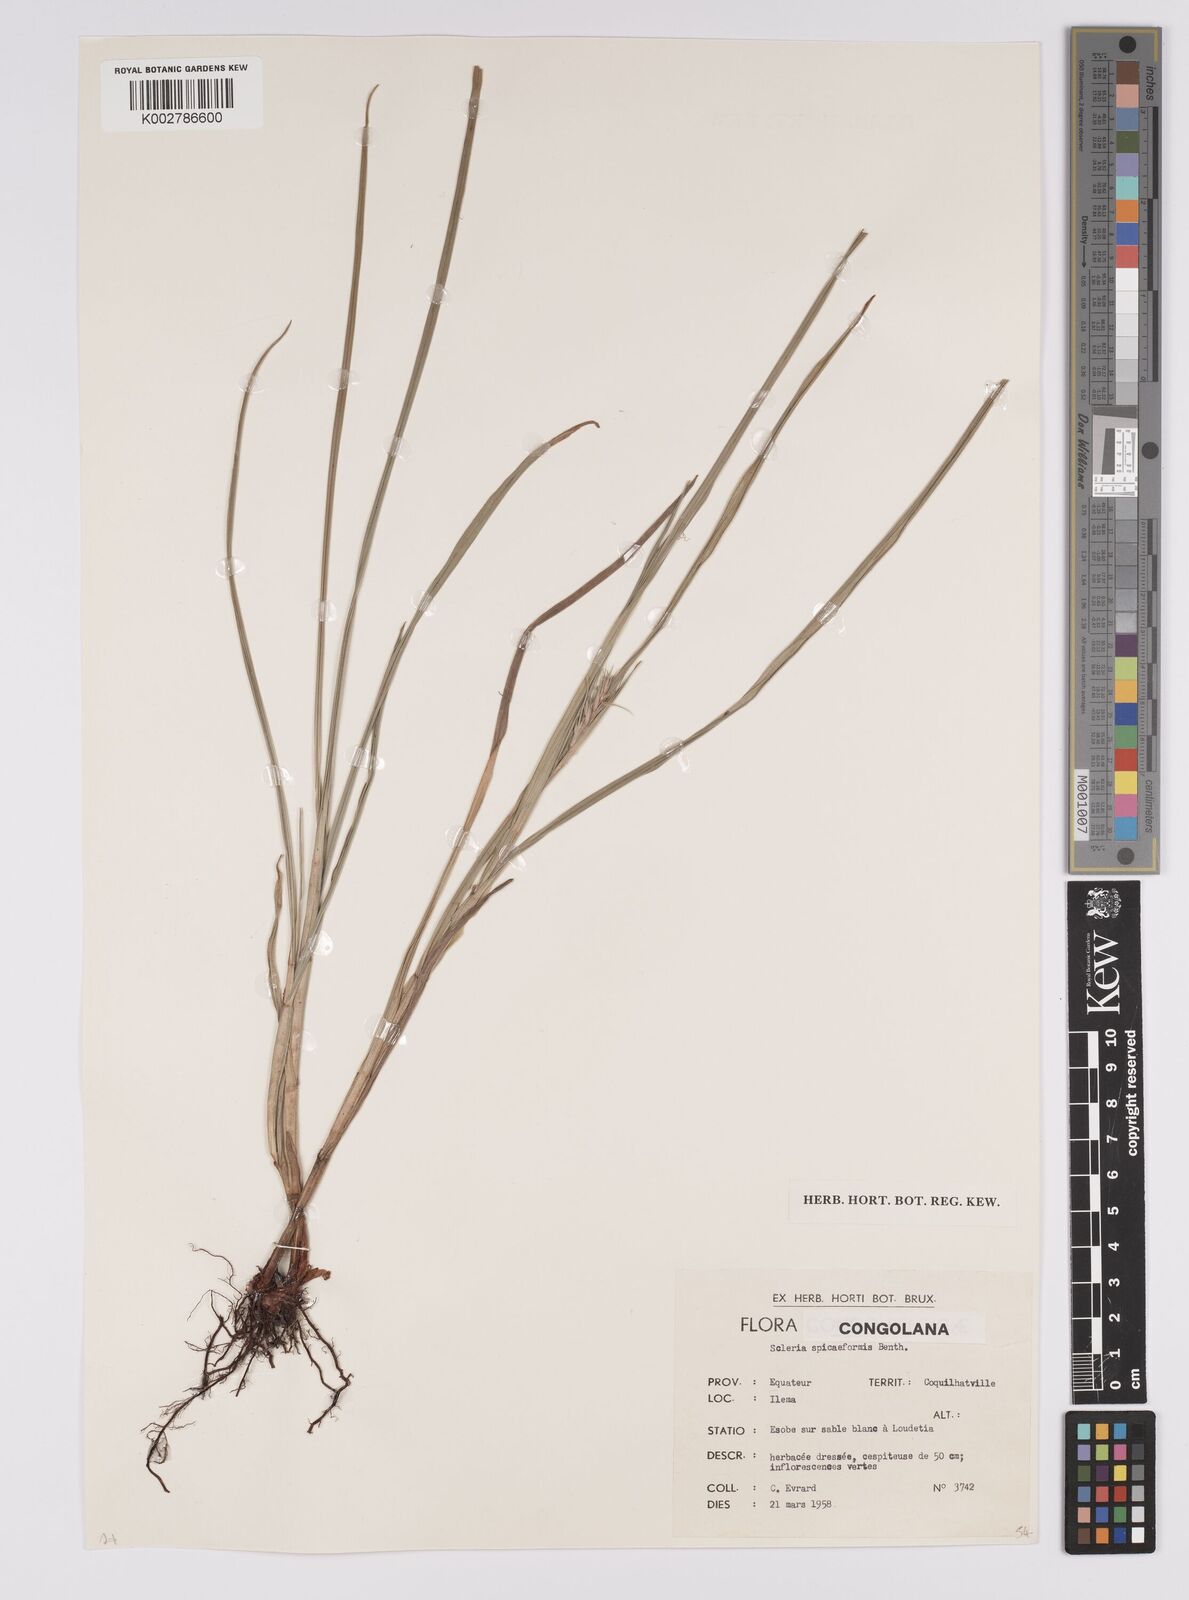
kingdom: Plantae
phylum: Tracheophyta
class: Liliopsida
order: Poales
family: Cyperaceae
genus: Scleria
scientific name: Scleria spiciformis
